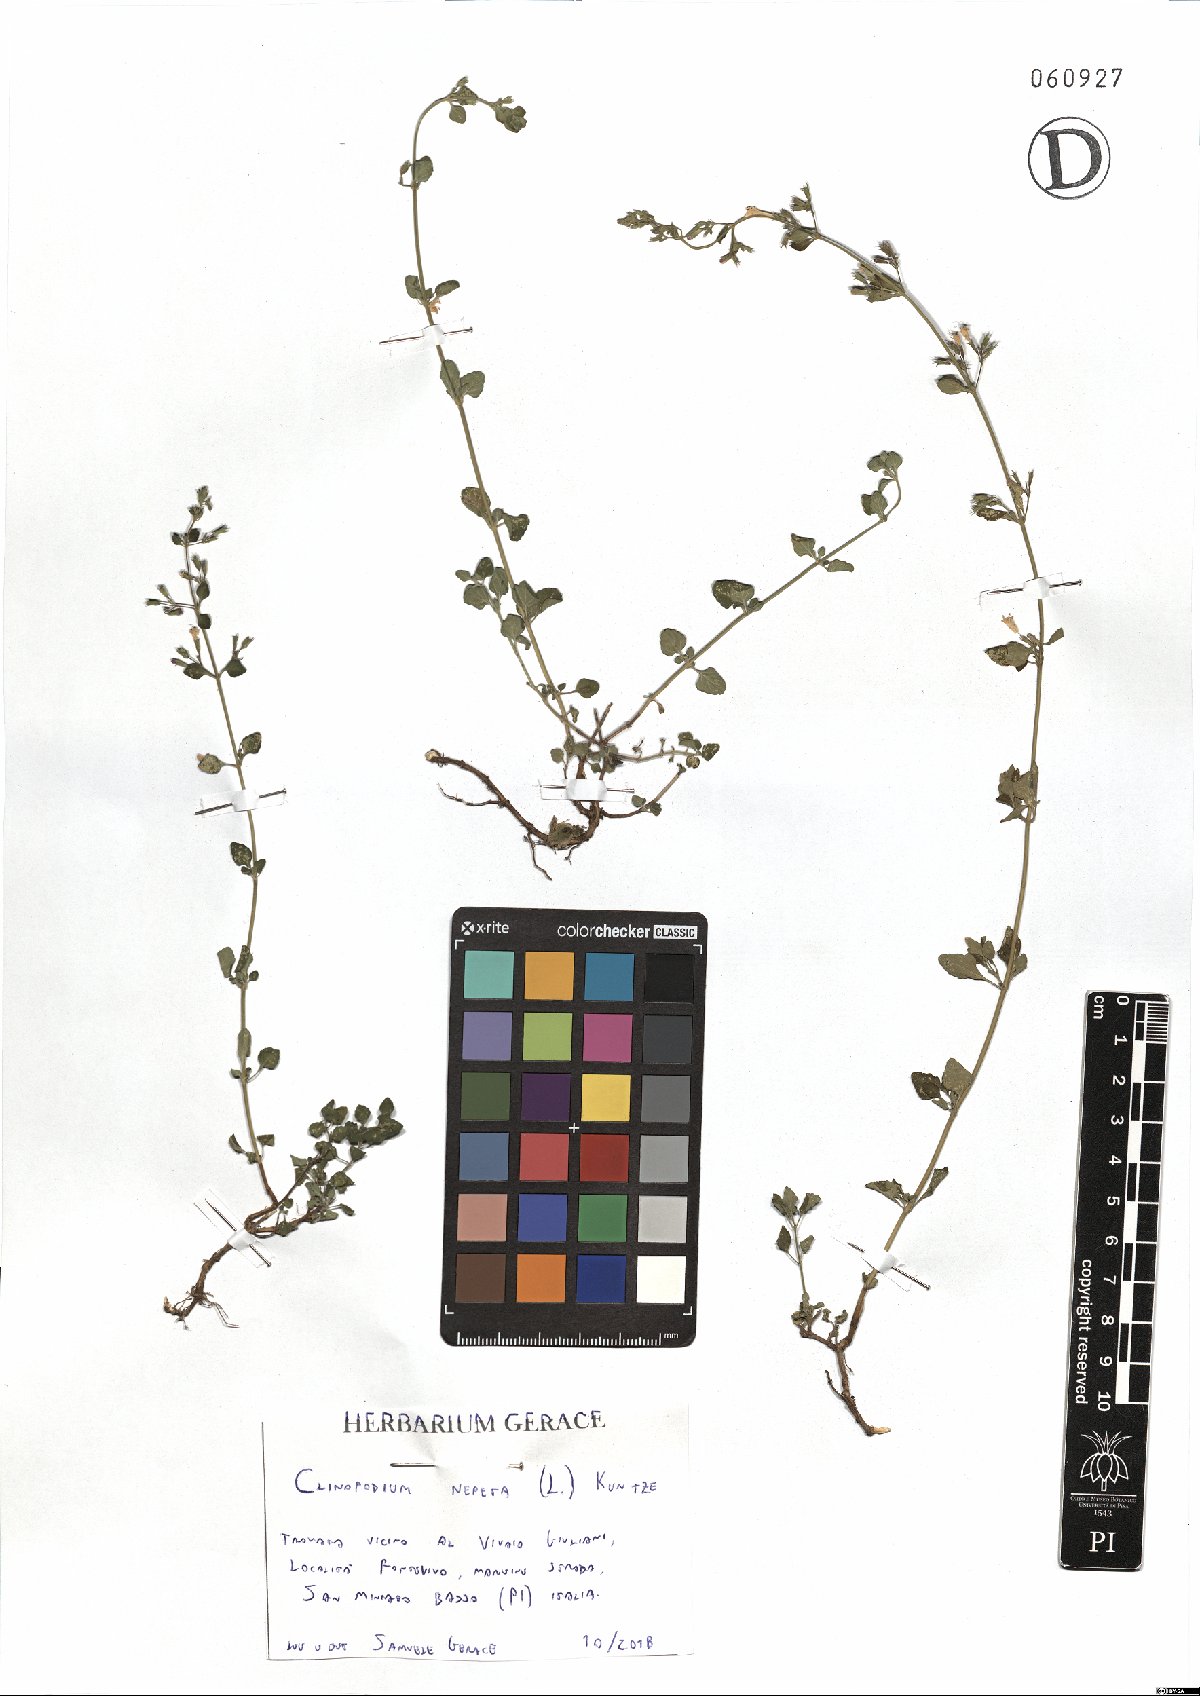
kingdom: Plantae
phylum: Tracheophyta
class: Magnoliopsida
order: Lamiales
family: Lamiaceae
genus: Clinopodium
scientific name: Clinopodium nepeta
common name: Lesser calamint
